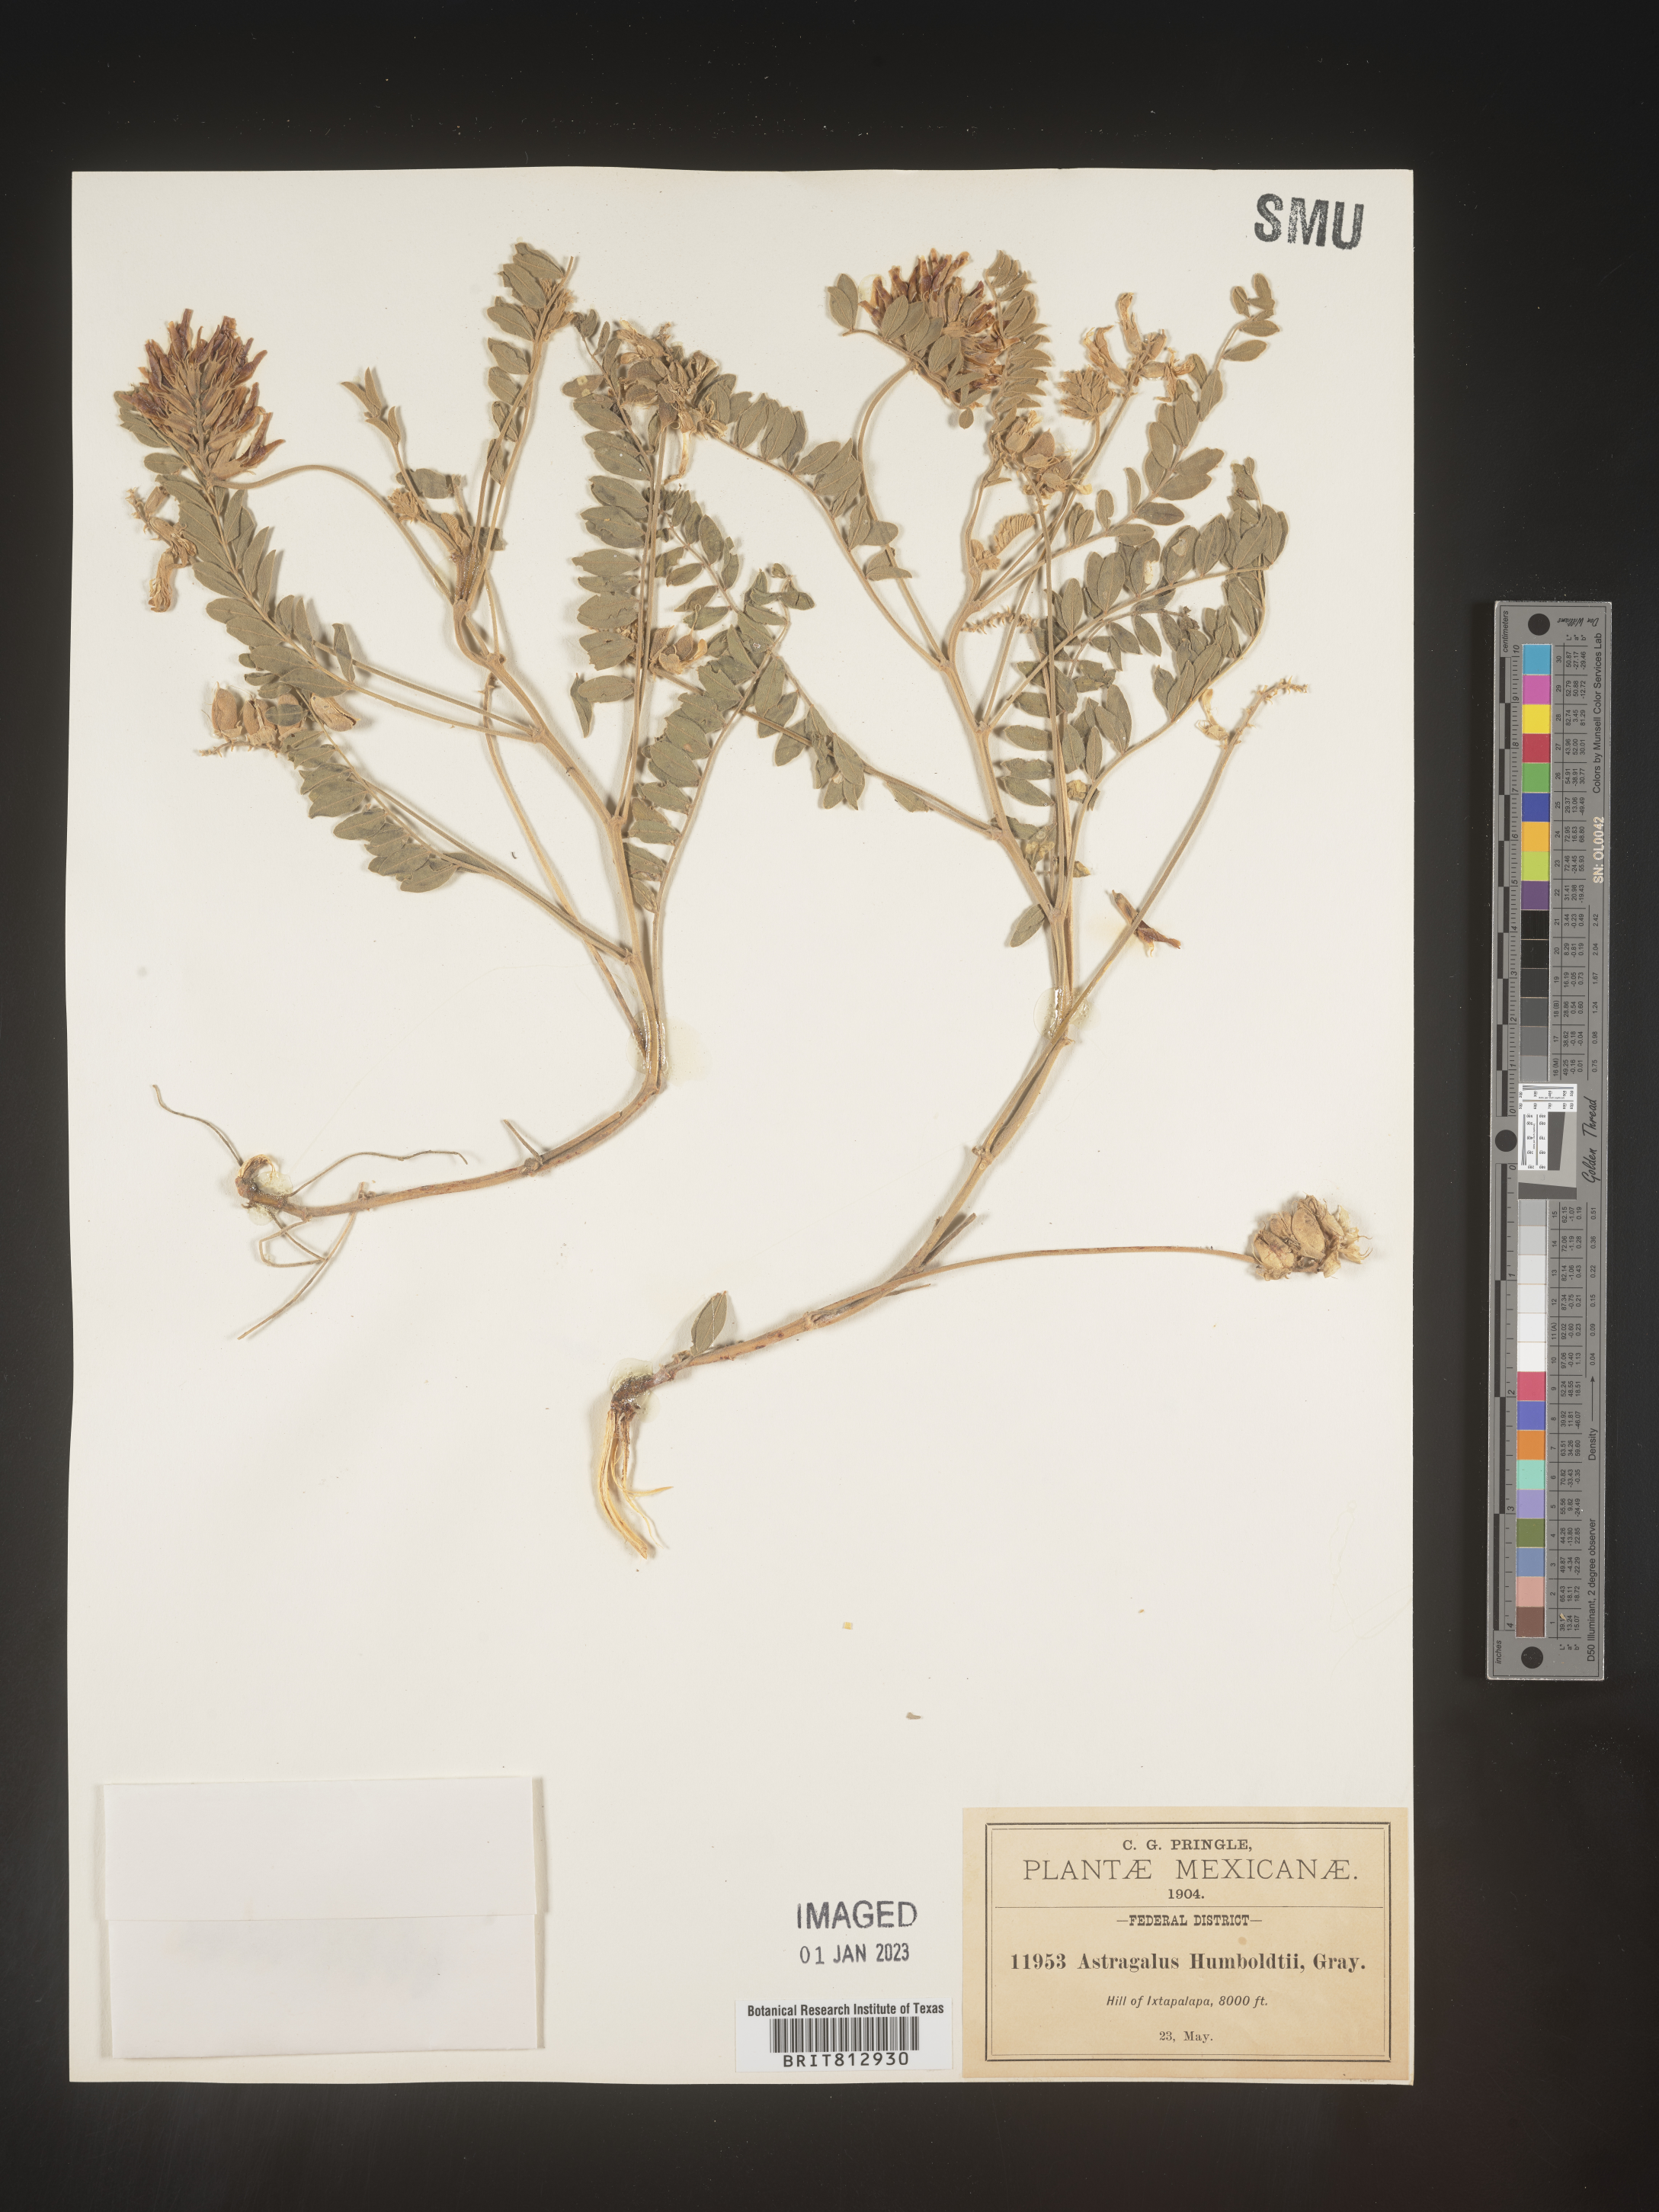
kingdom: Plantae
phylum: Tracheophyta
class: Magnoliopsida
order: Fabales
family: Fabaceae
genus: Astragalus
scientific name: Astragalus
